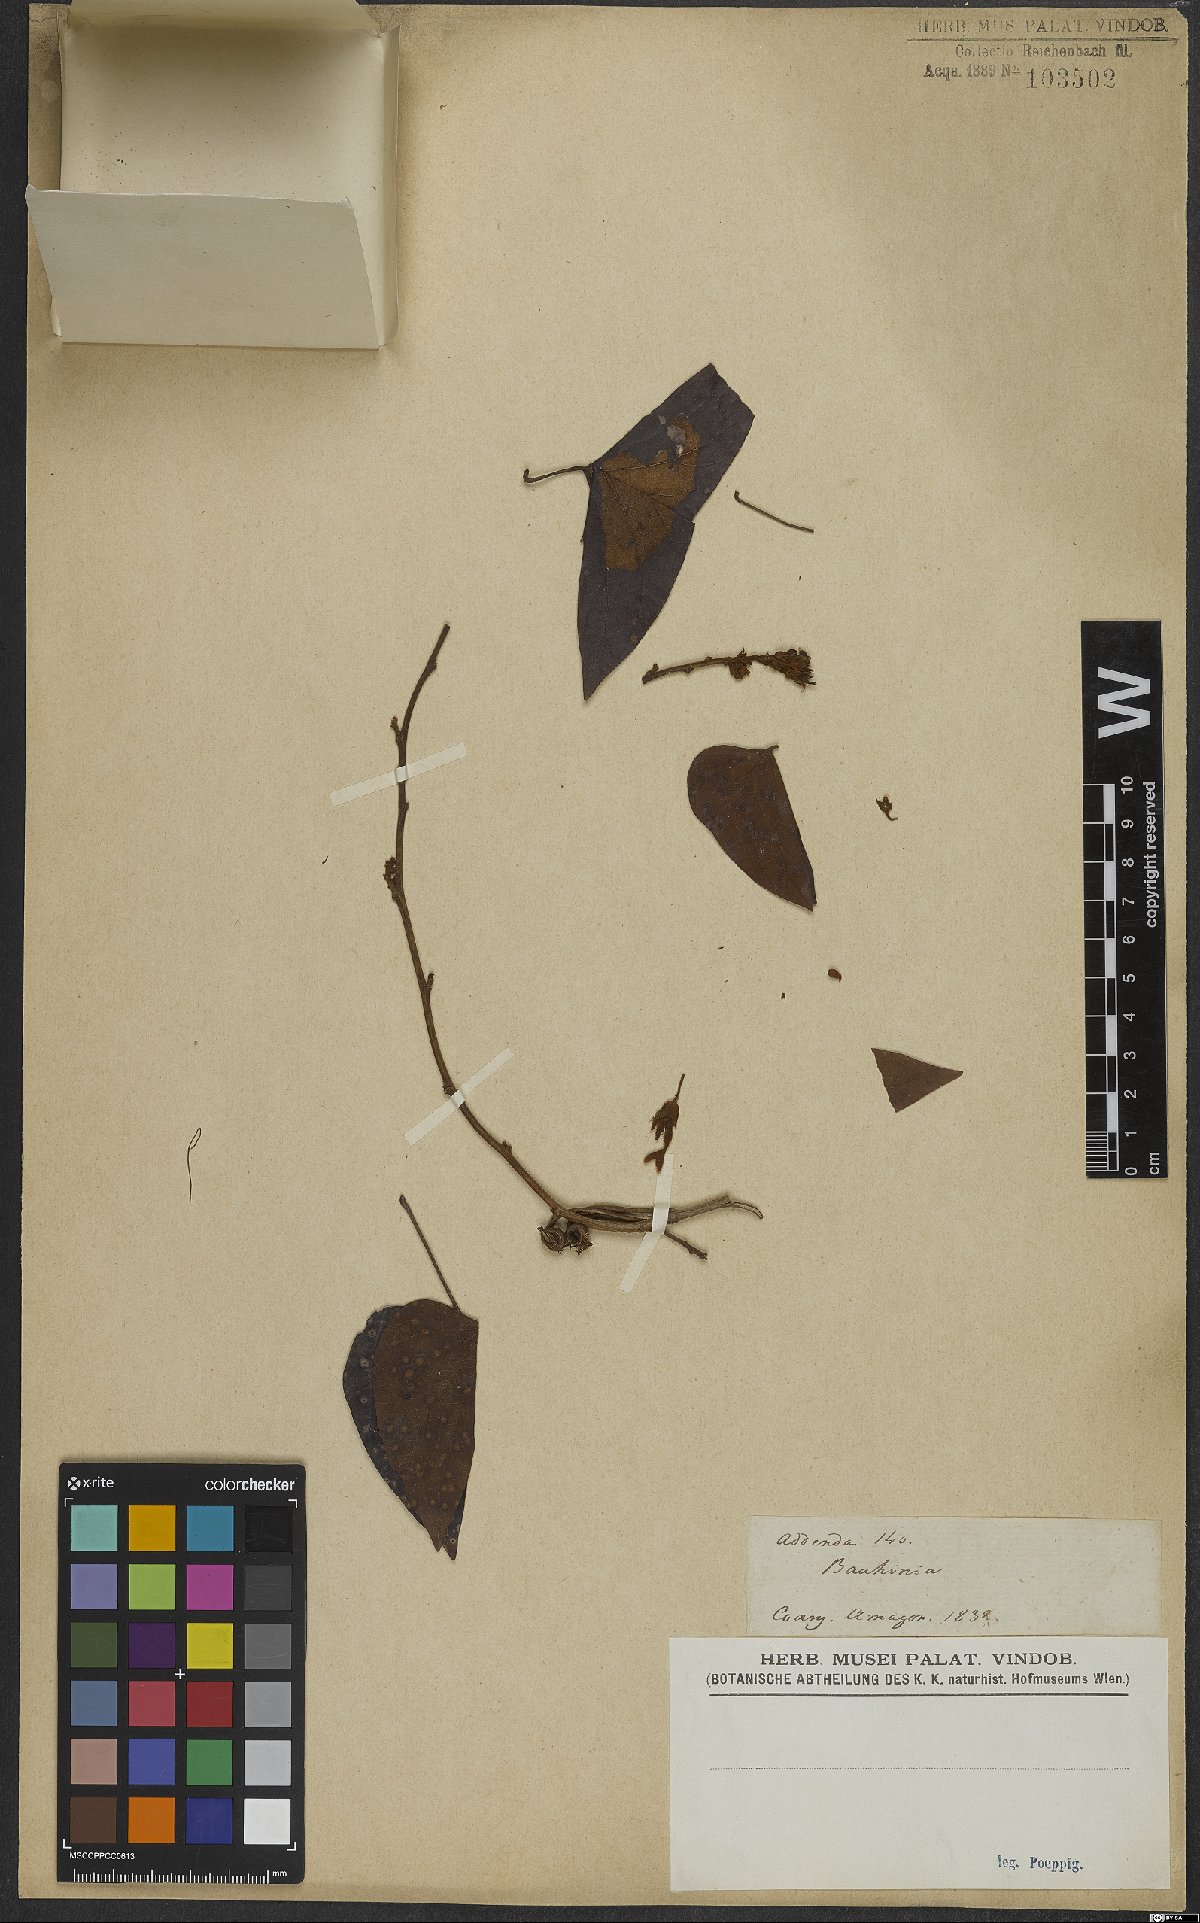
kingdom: Plantae
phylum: Tracheophyta
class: Magnoliopsida
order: Fabales
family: Fabaceae
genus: Schnella
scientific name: Schnella glabra
